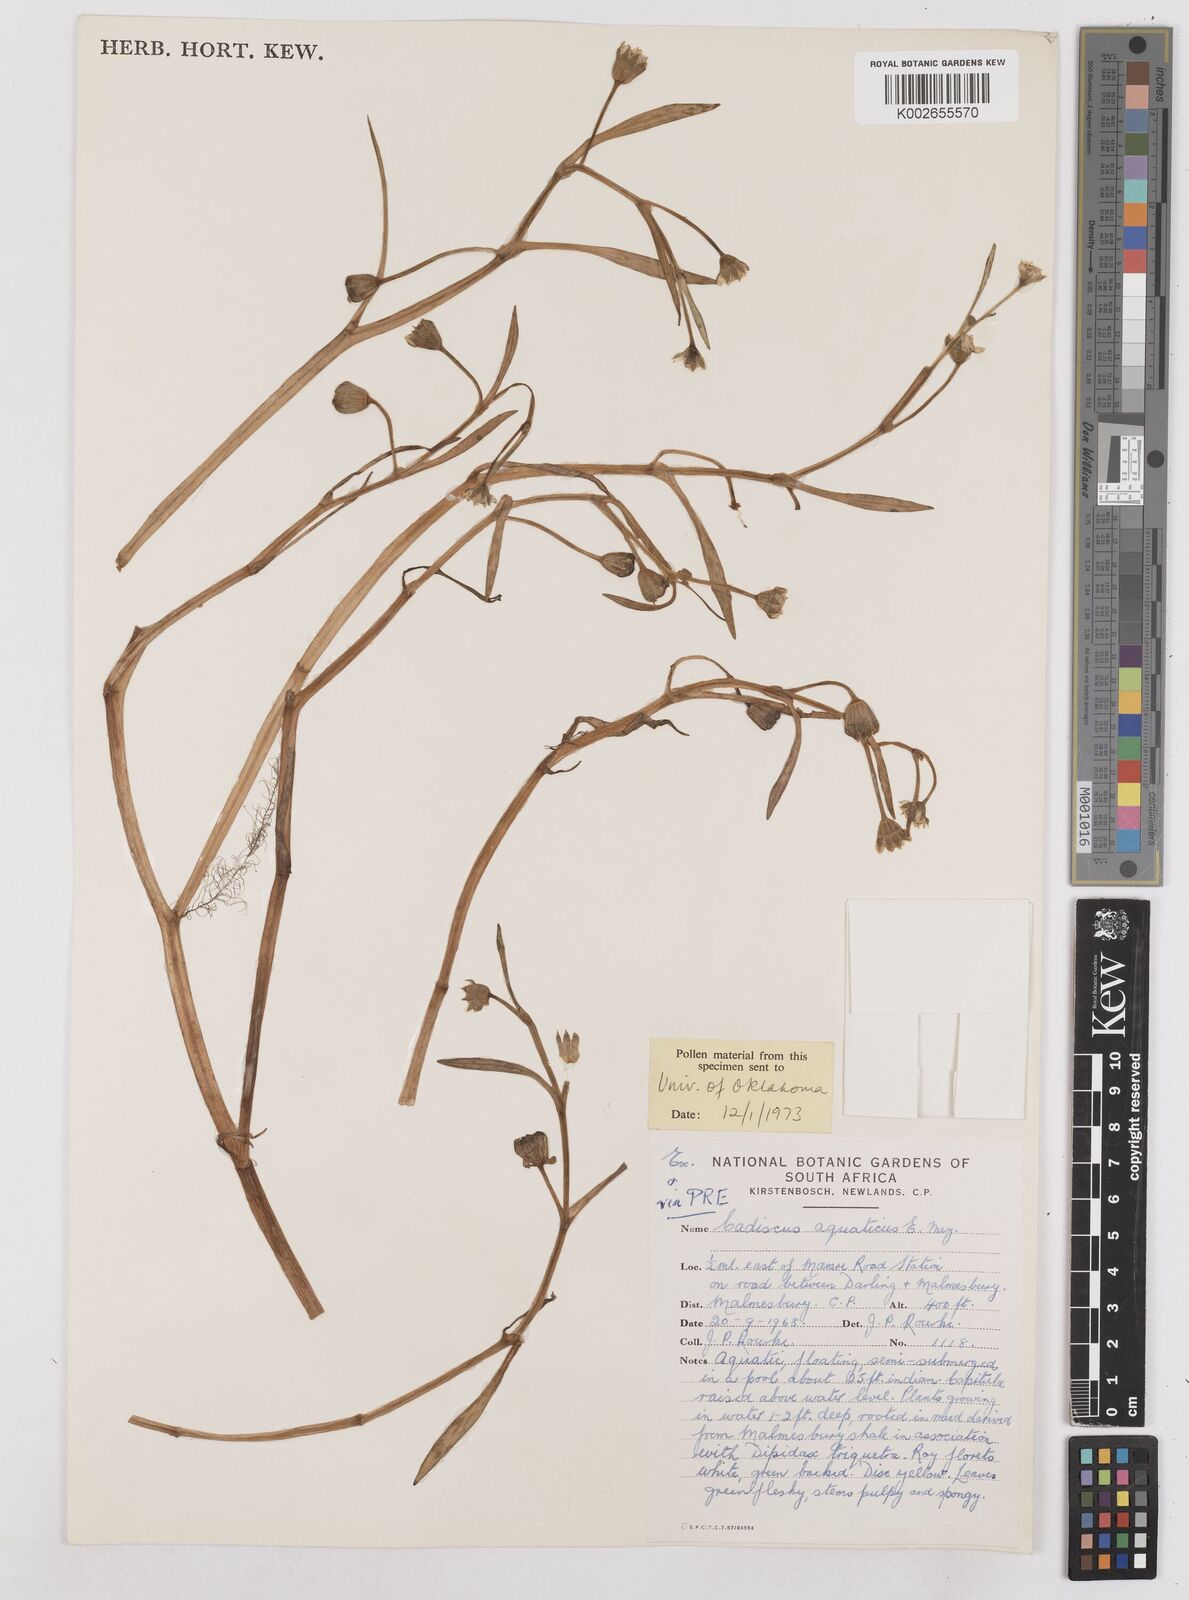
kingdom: Plantae
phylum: Tracheophyta
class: Magnoliopsida
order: Asterales
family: Asteraceae
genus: Cadiscus
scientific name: Cadiscus aquaticus
